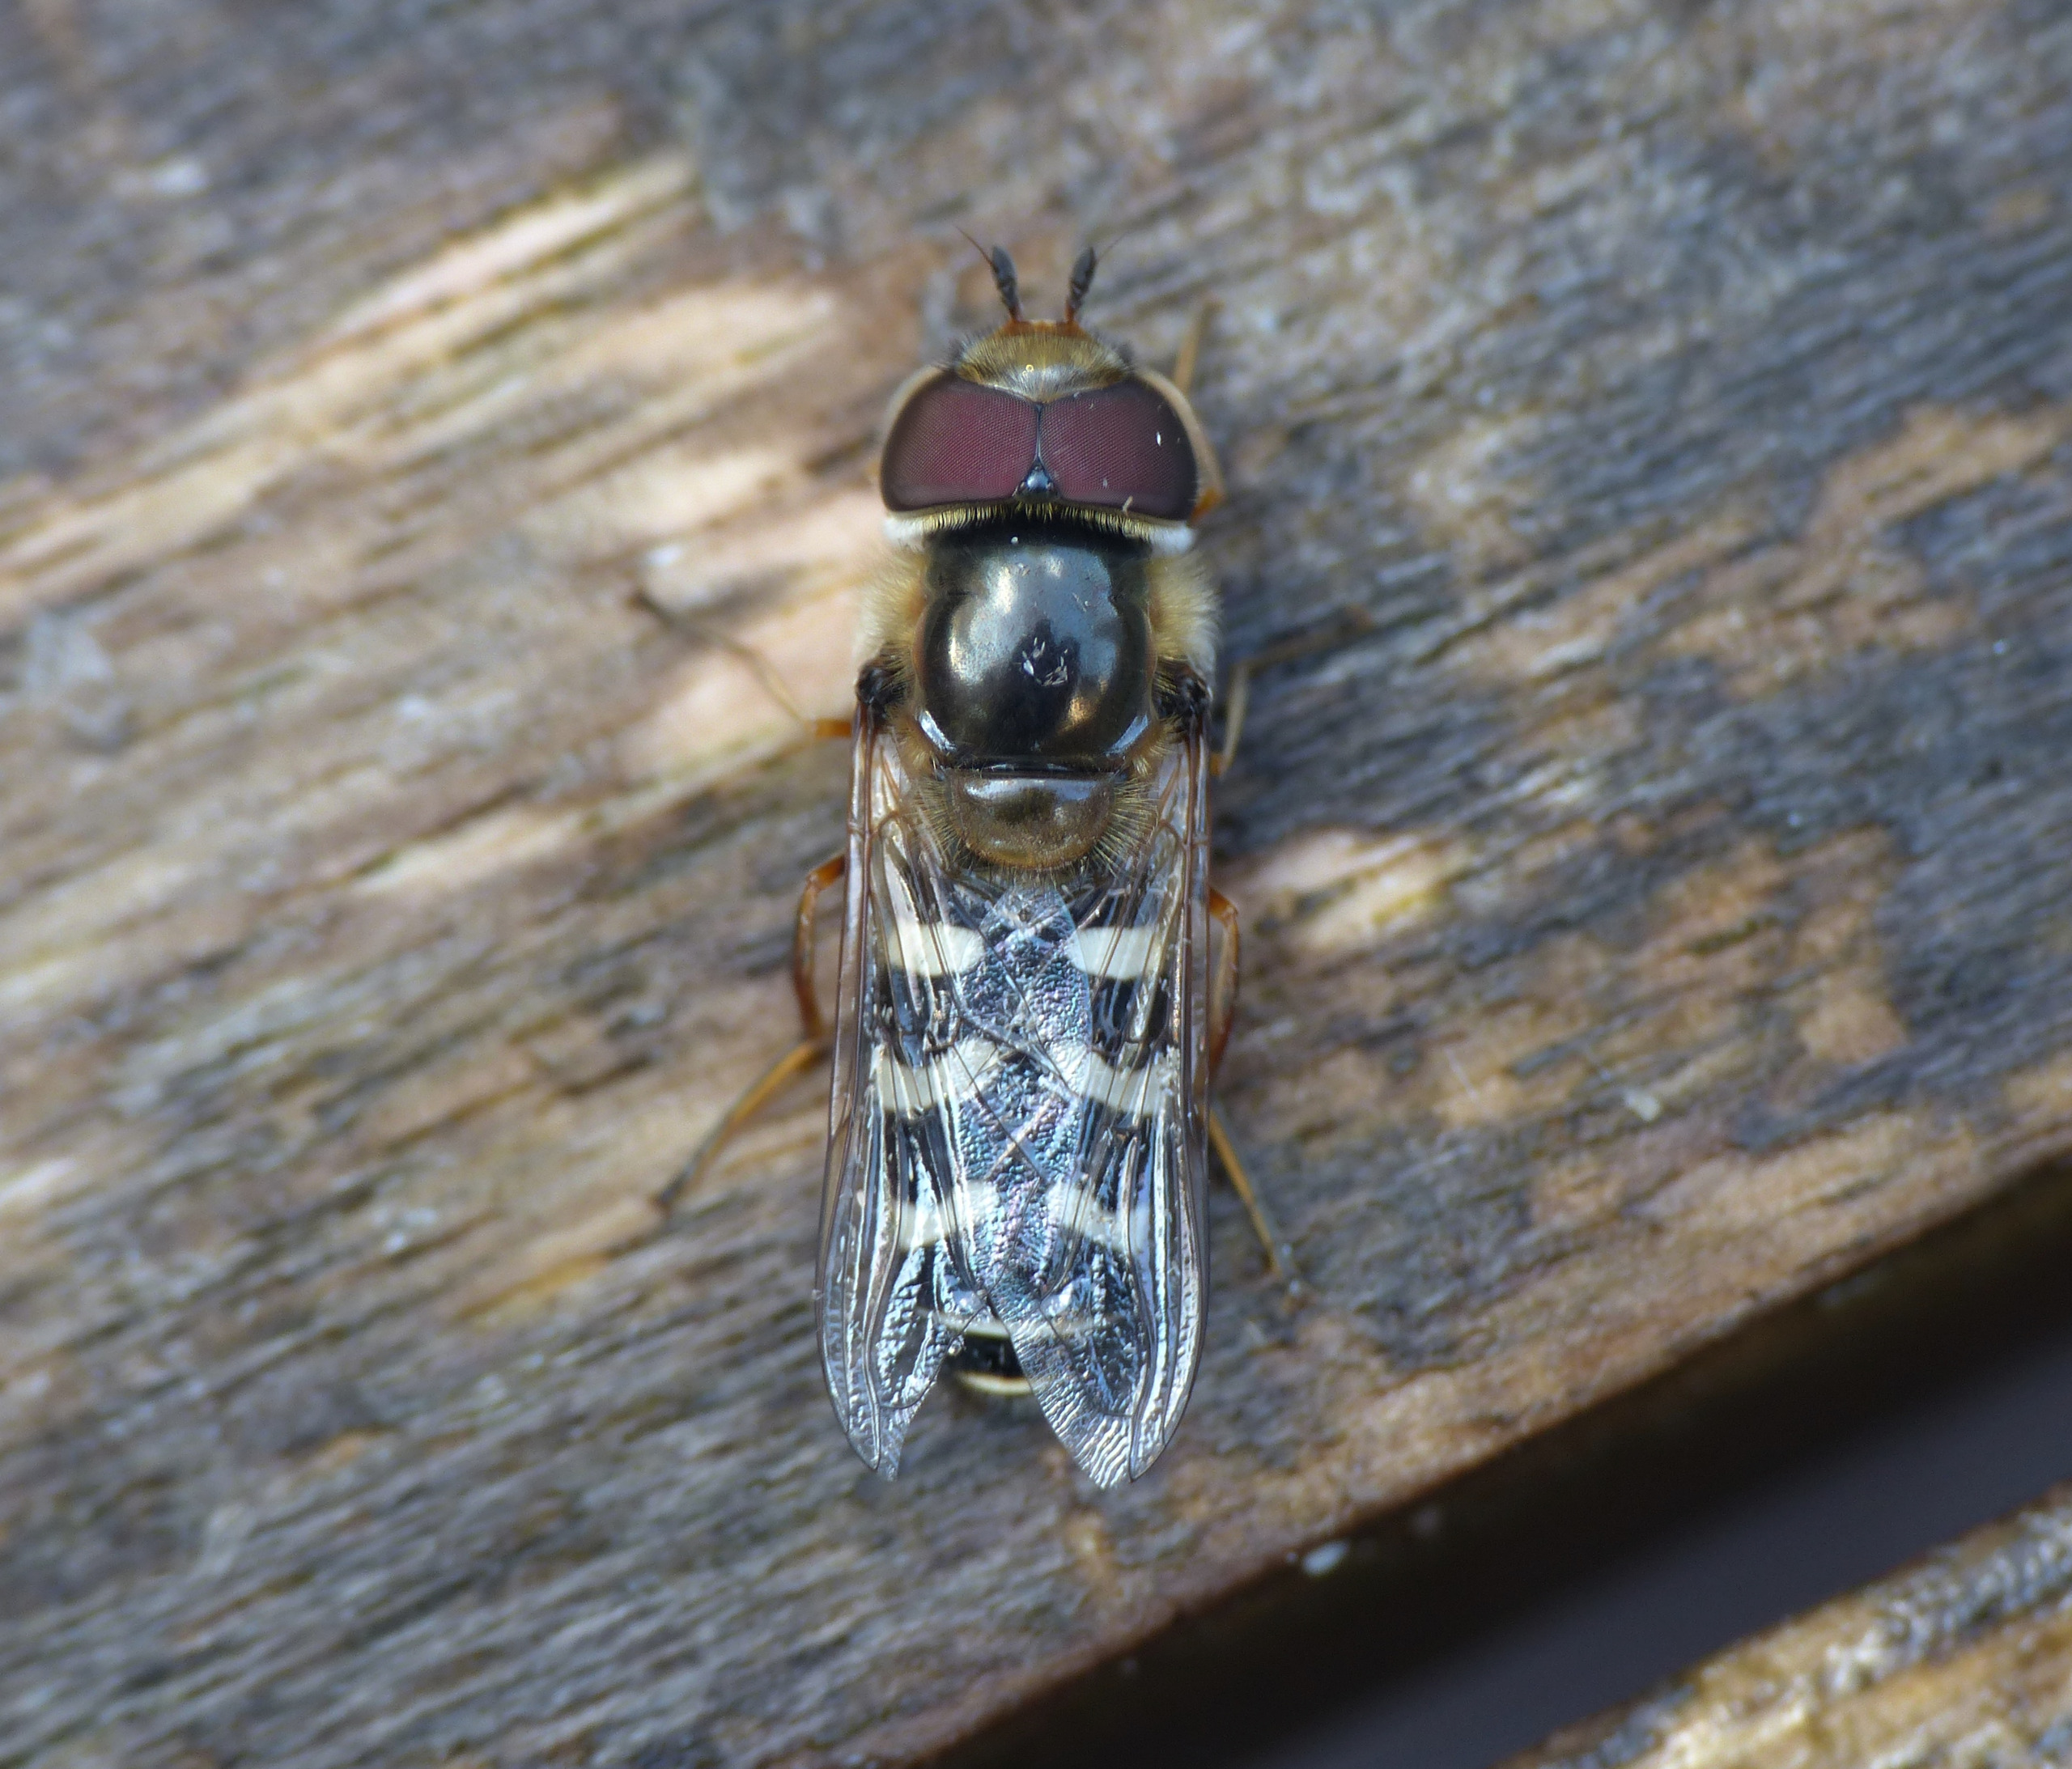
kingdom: Animalia
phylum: Arthropoda
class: Insecta
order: Diptera
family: Syrphidae
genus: Scaeva
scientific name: Scaeva pyrastri
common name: Hvidplettet agersvirreflue
